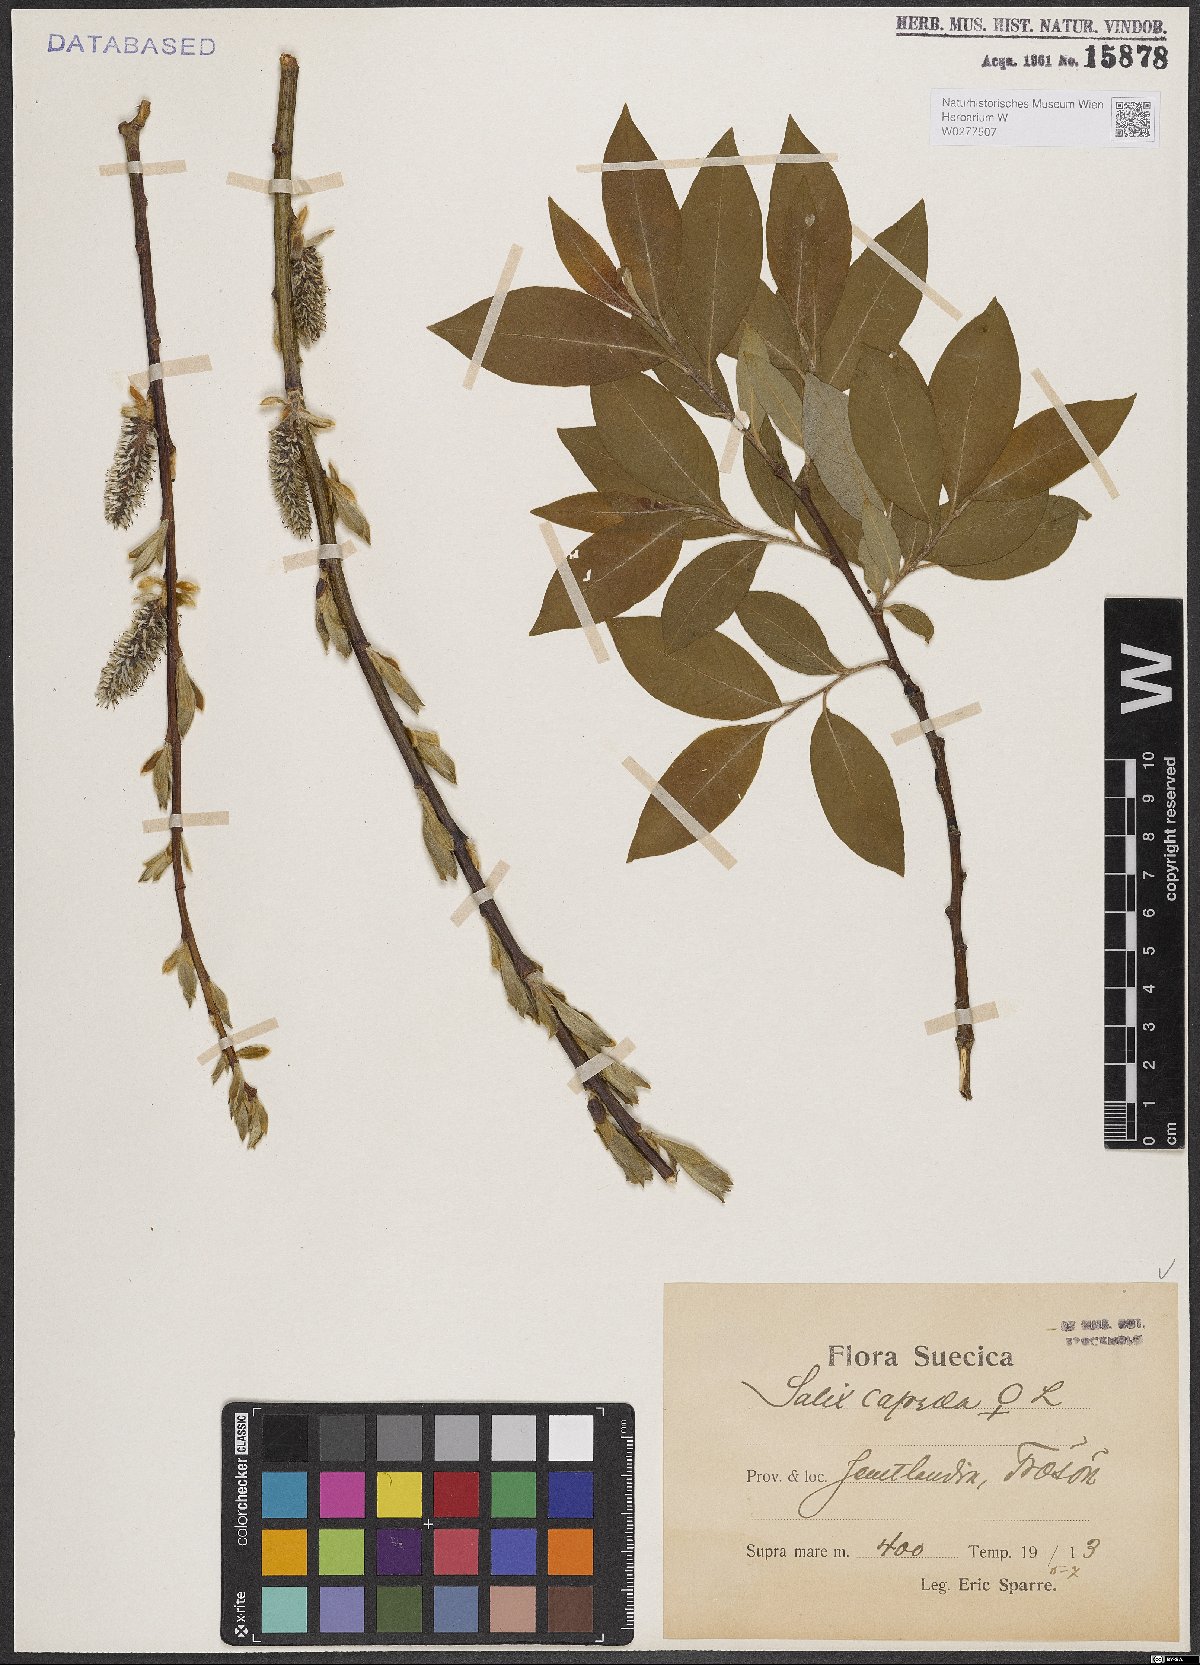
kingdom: Plantae
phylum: Tracheophyta
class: Magnoliopsida
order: Malpighiales
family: Salicaceae
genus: Salix
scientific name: Salix caprea
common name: Goat willow
